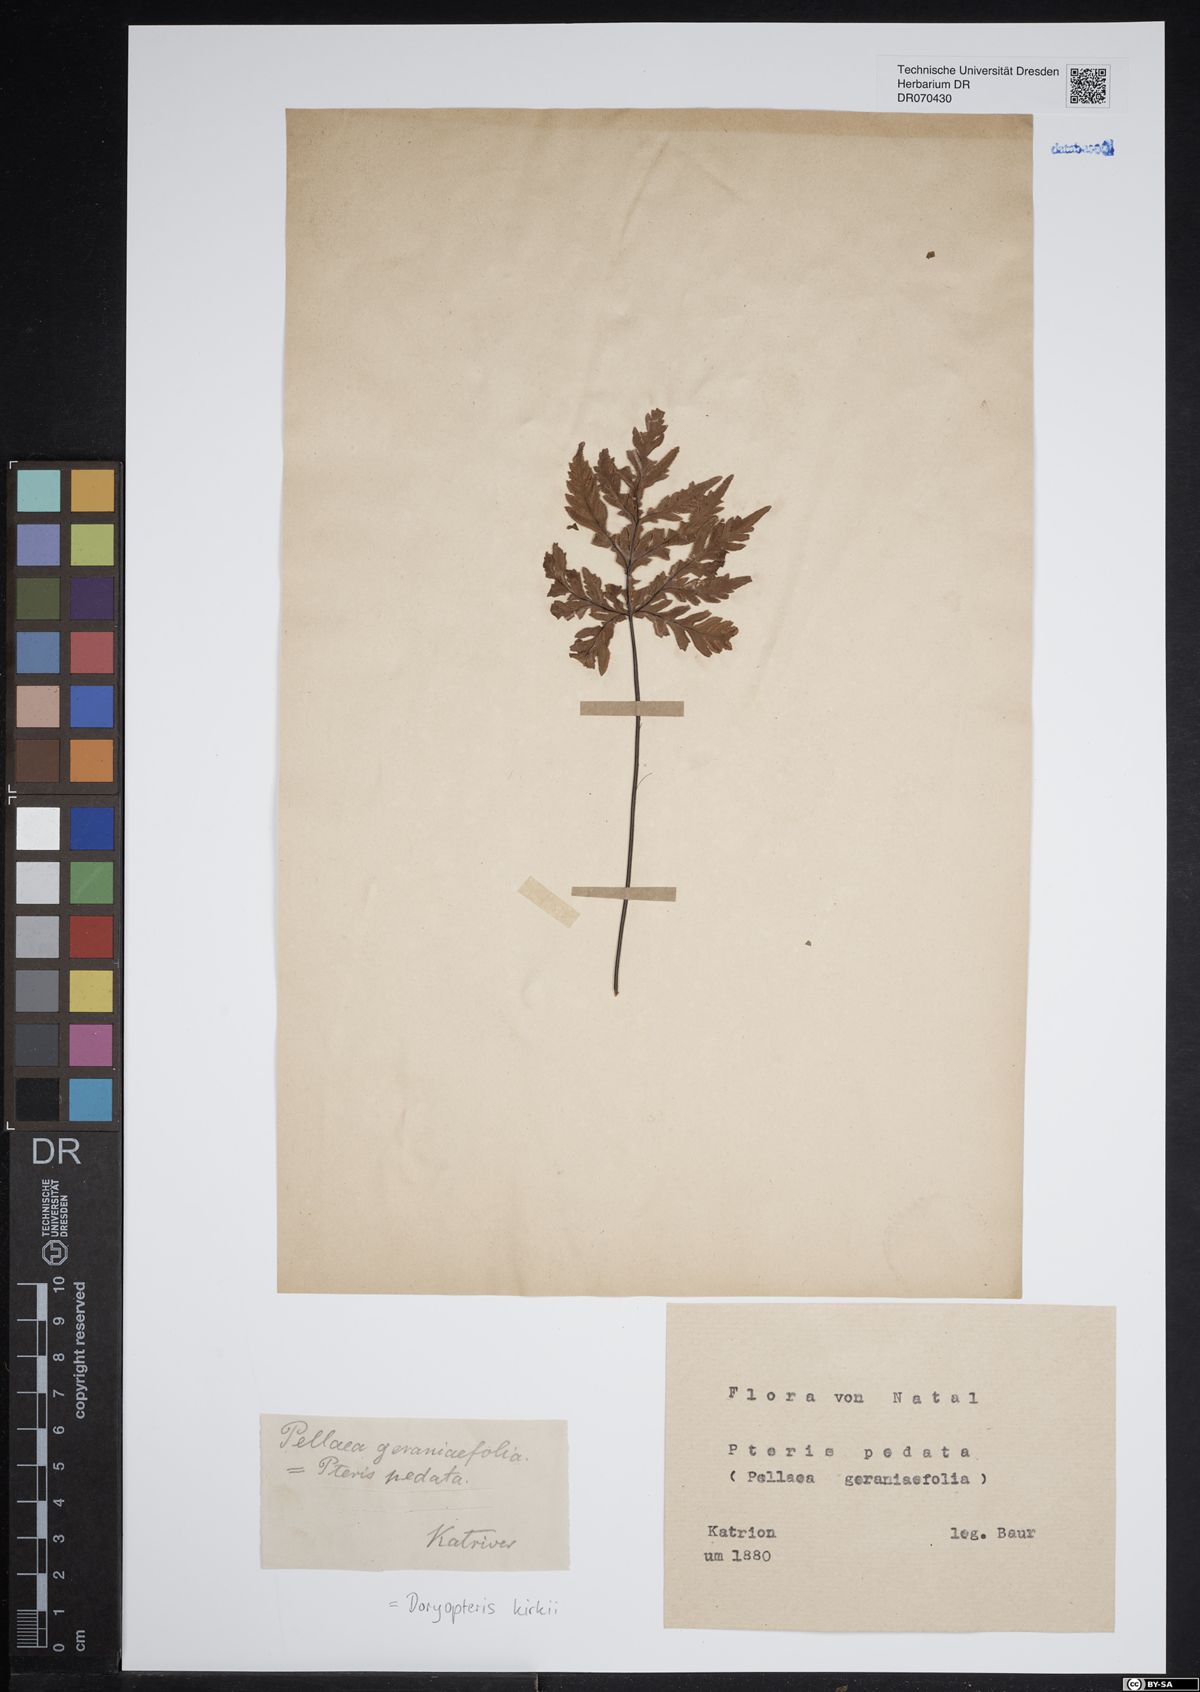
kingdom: Plantae
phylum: Tracheophyta
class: Polypodiopsida
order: Polypodiales
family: Pteridaceae
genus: Doryopteris
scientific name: Doryopteris kirkii
